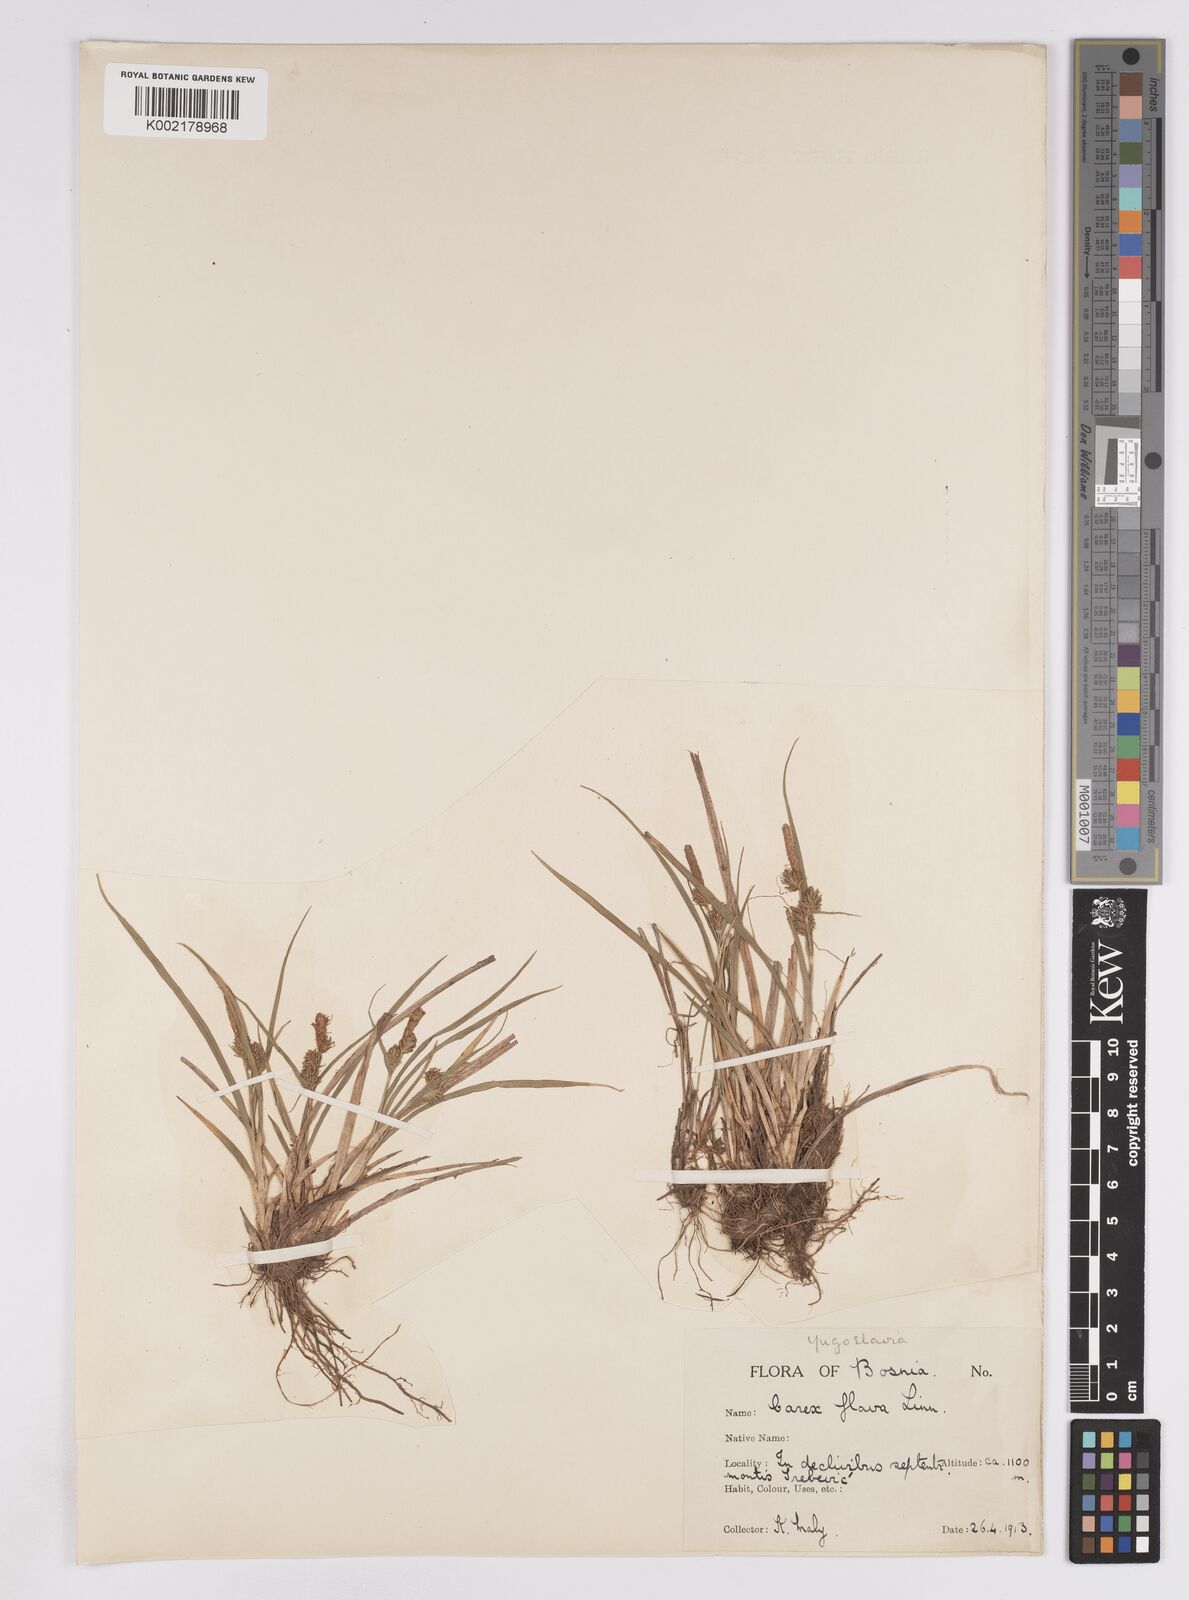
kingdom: Plantae
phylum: Tracheophyta
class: Liliopsida
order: Poales
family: Cyperaceae
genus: Carex
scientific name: Carex lepidocarpa
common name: Long-stalked yellow-sedge
